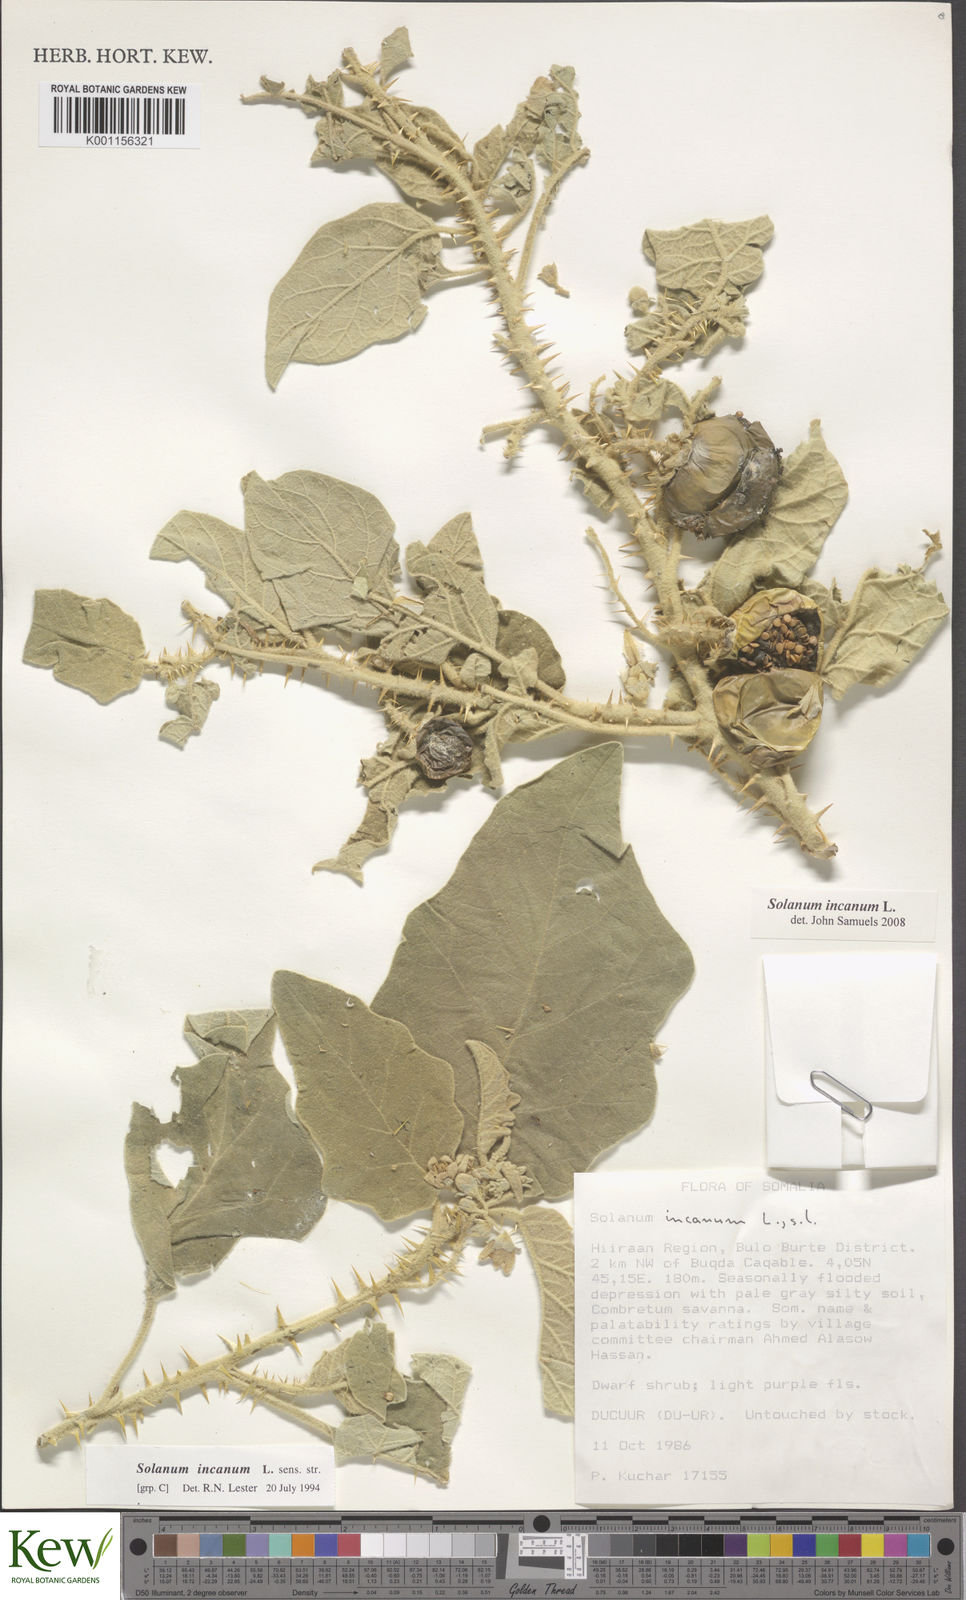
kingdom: Plantae
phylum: Tracheophyta
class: Magnoliopsida
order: Solanales
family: Solanaceae
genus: Solanum
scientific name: Solanum incanum
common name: Bitter apple
